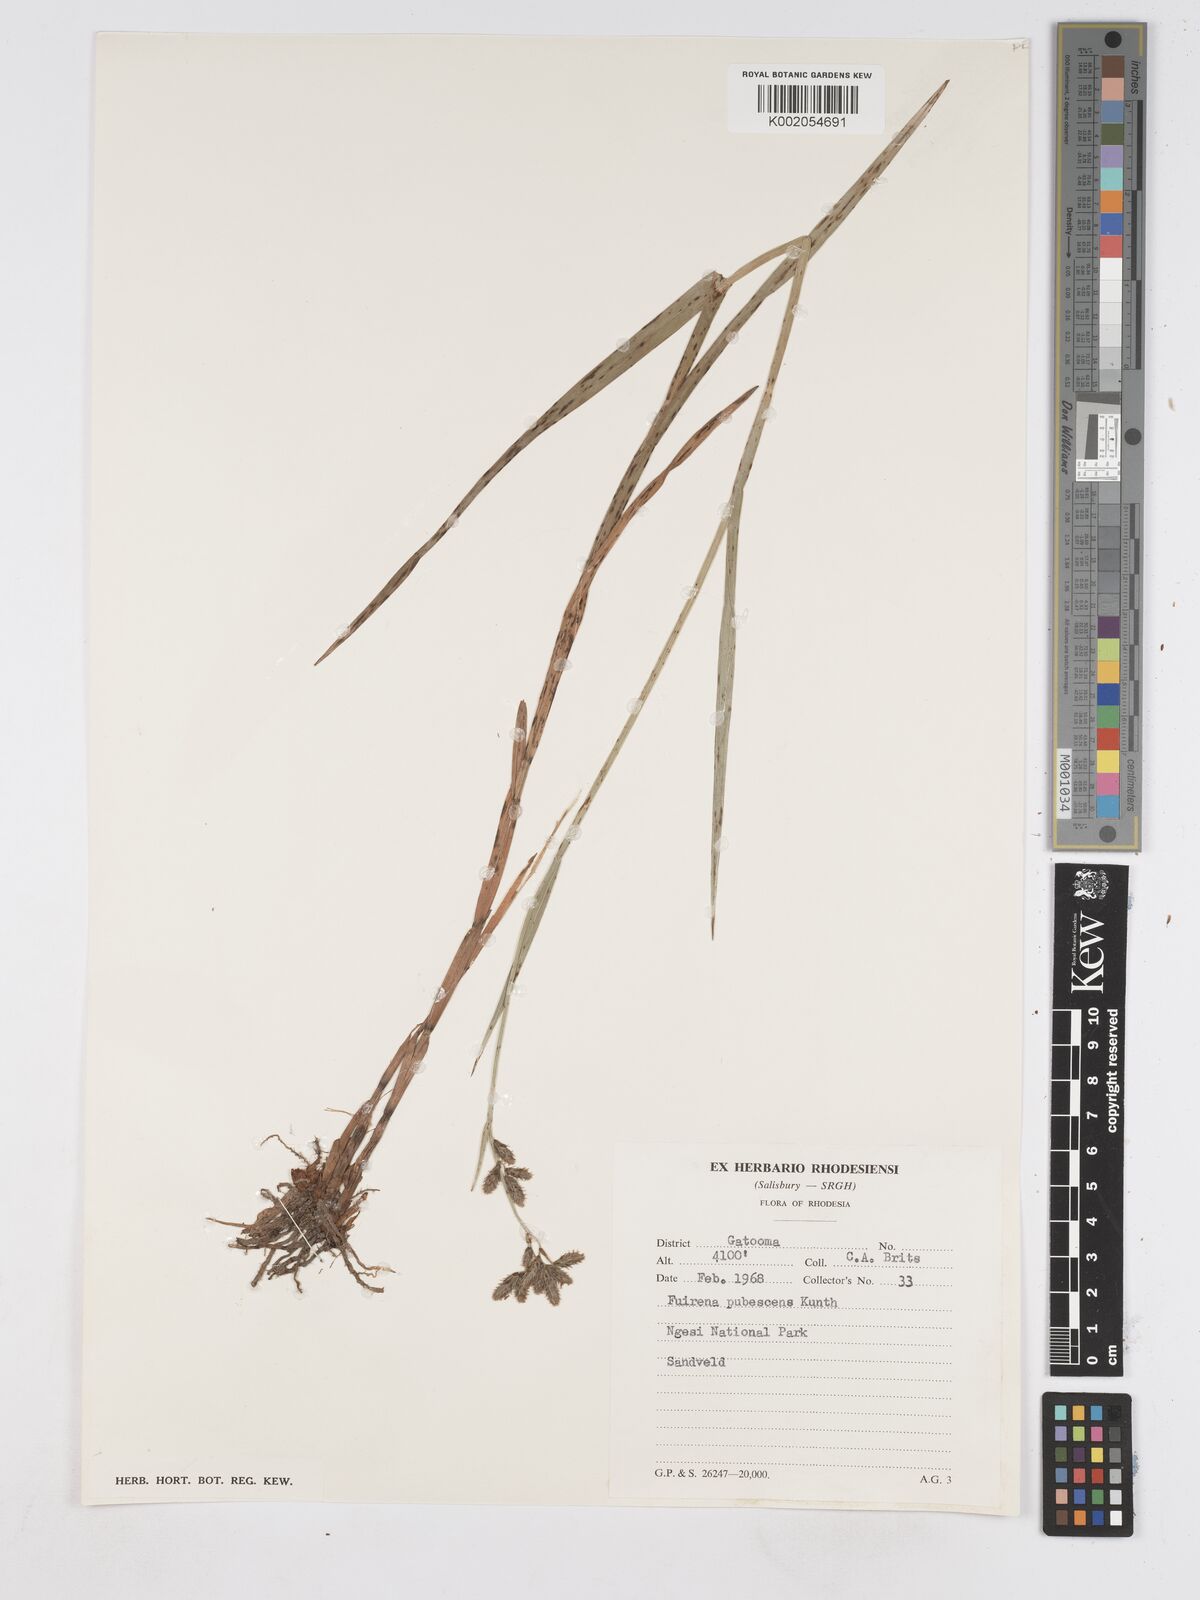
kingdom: Plantae
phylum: Tracheophyta
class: Liliopsida
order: Poales
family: Cyperaceae
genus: Fuirena
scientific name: Fuirena pachyrrhiza
